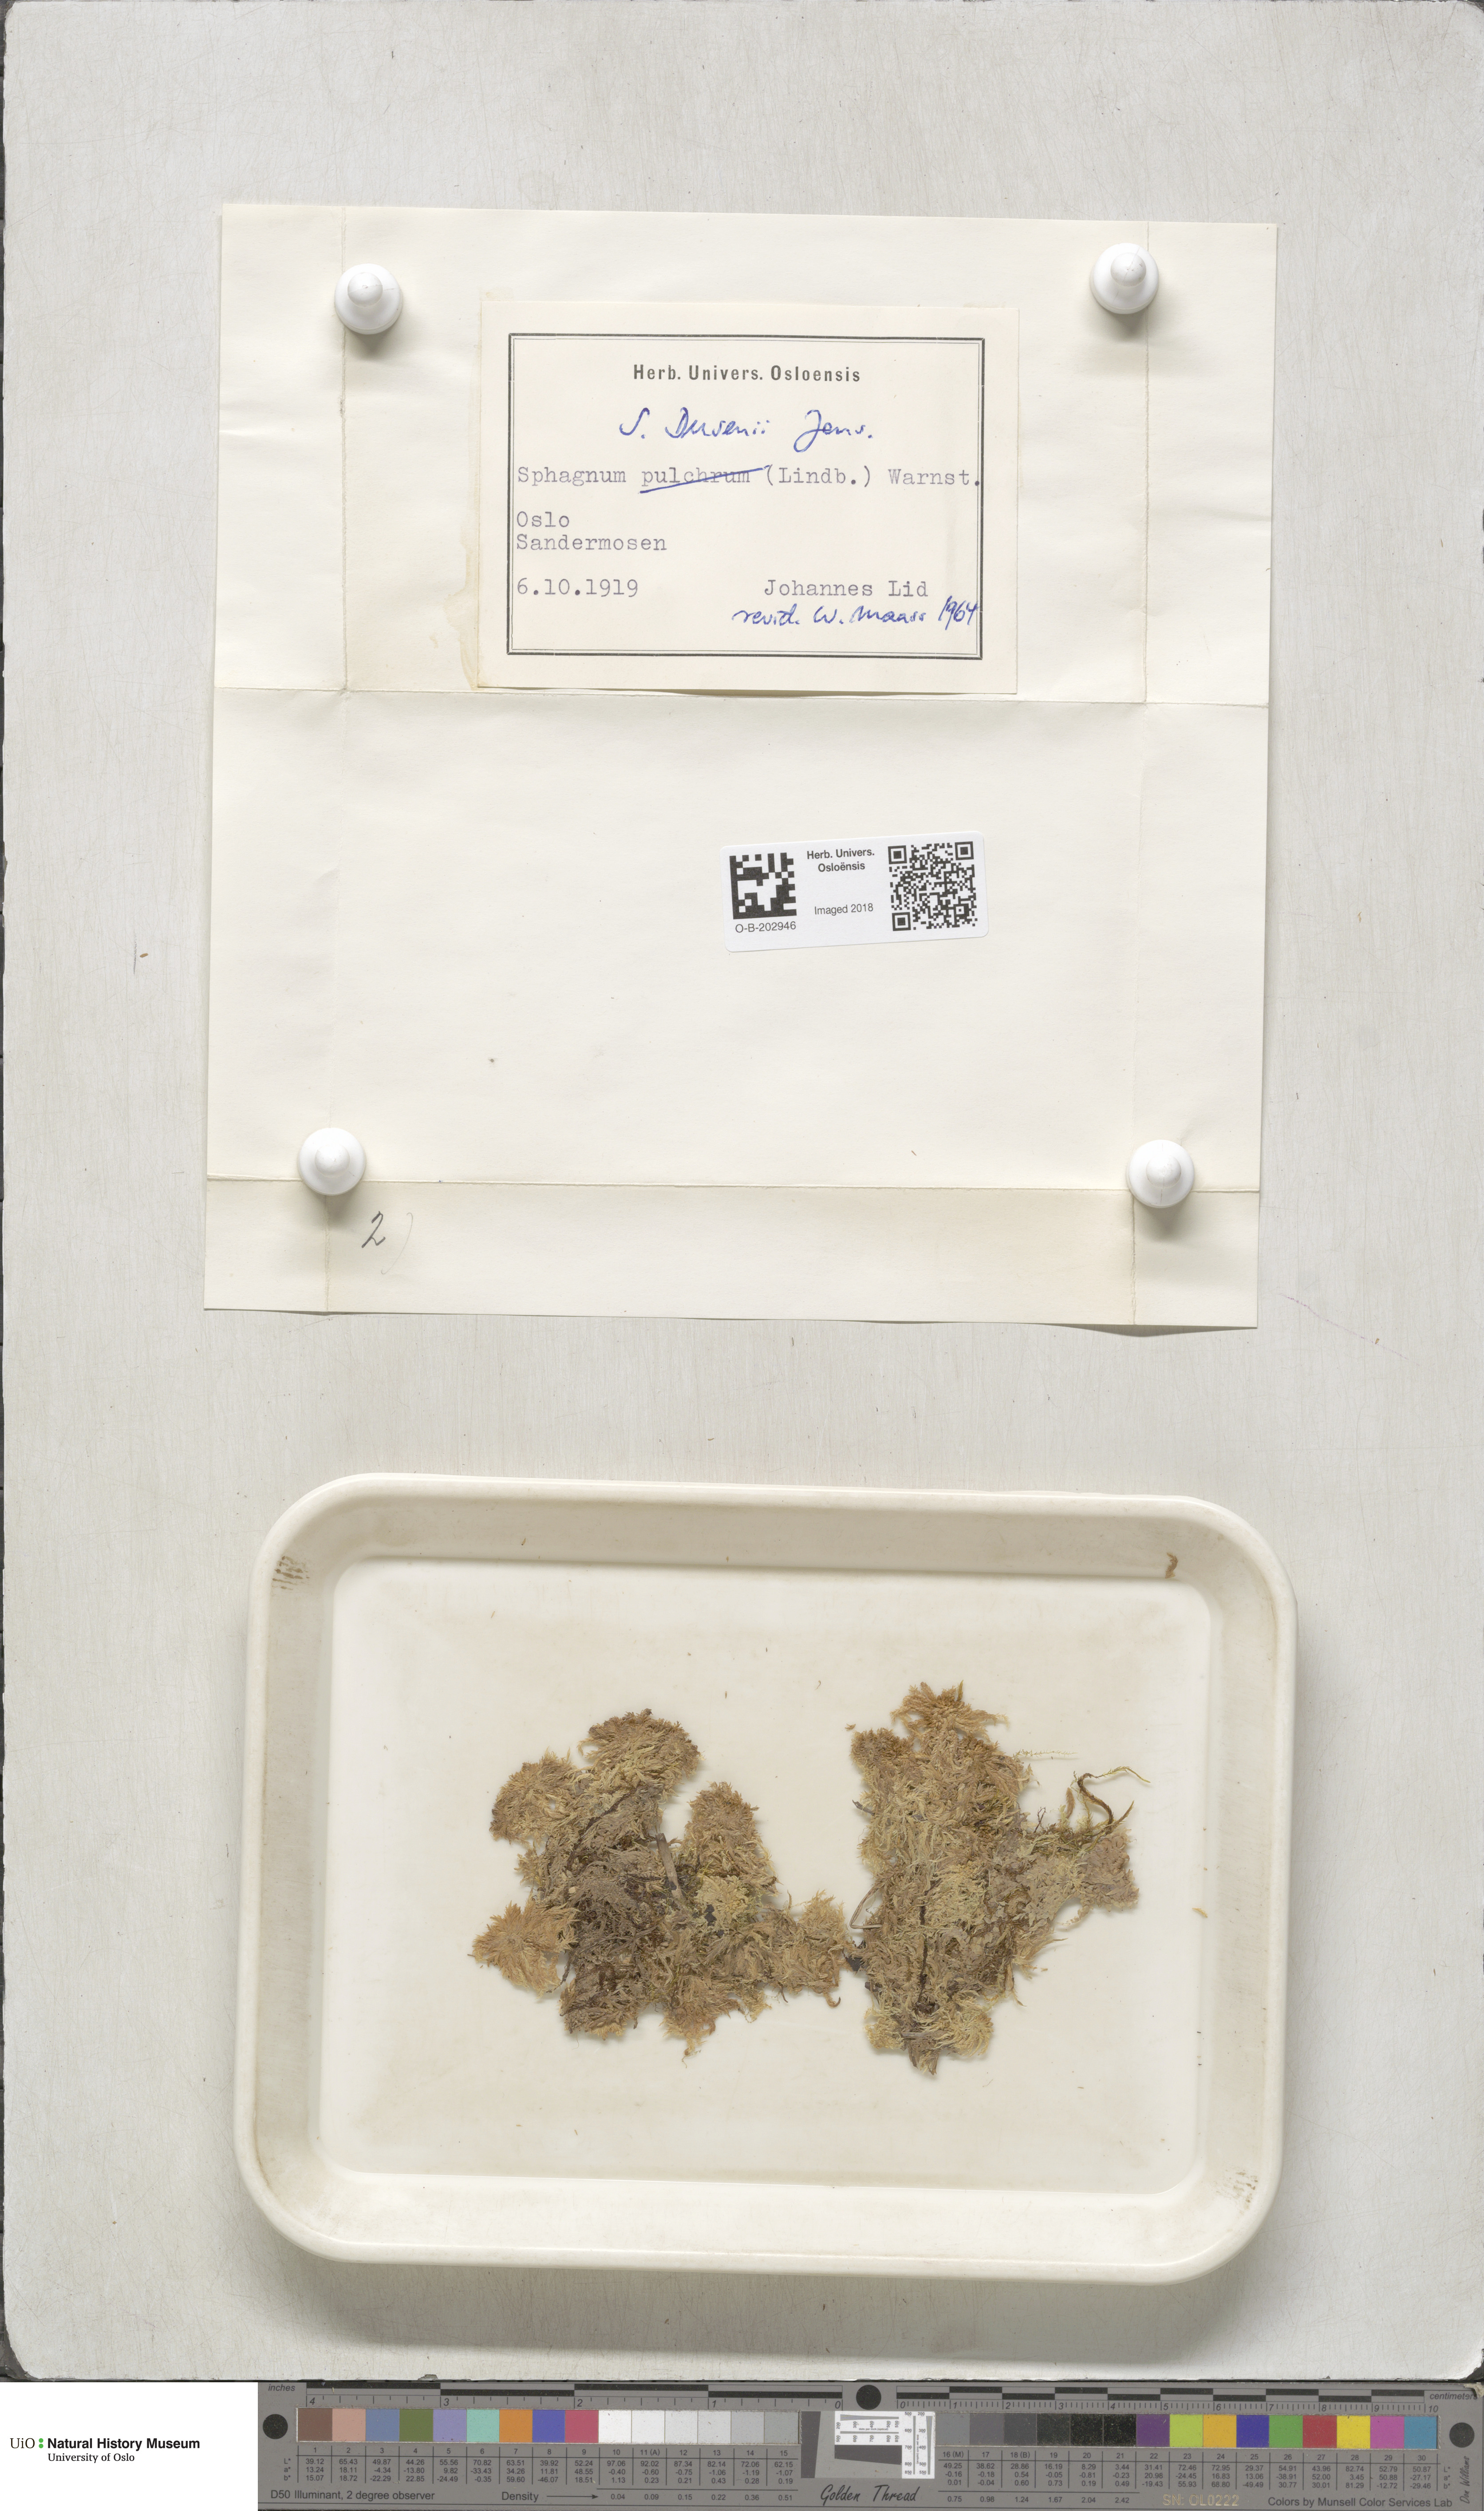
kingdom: Plantae
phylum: Bryophyta
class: Sphagnopsida
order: Sphagnales
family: Sphagnaceae
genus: Sphagnum
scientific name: Sphagnum majus
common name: Olive bog-moss
